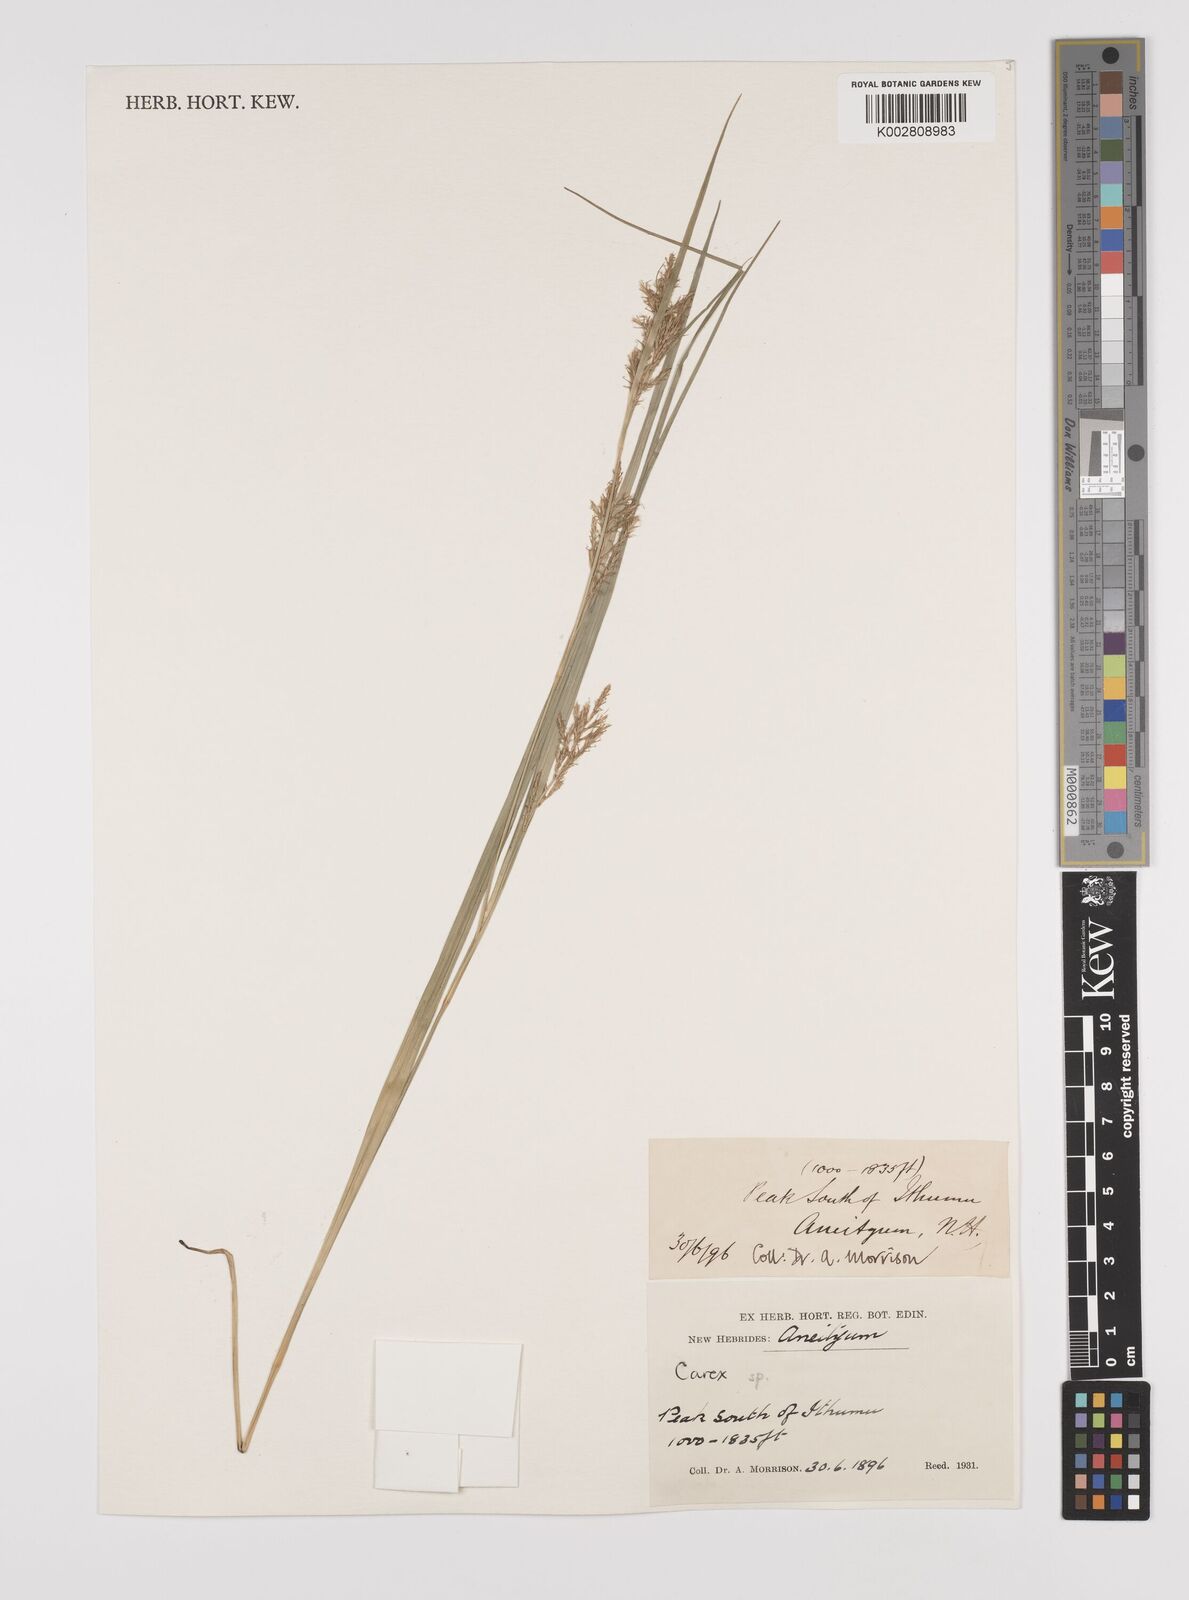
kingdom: Plantae
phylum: Tracheophyta
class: Liliopsida
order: Poales
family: Cyperaceae
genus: Carex
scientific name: Carex indica
